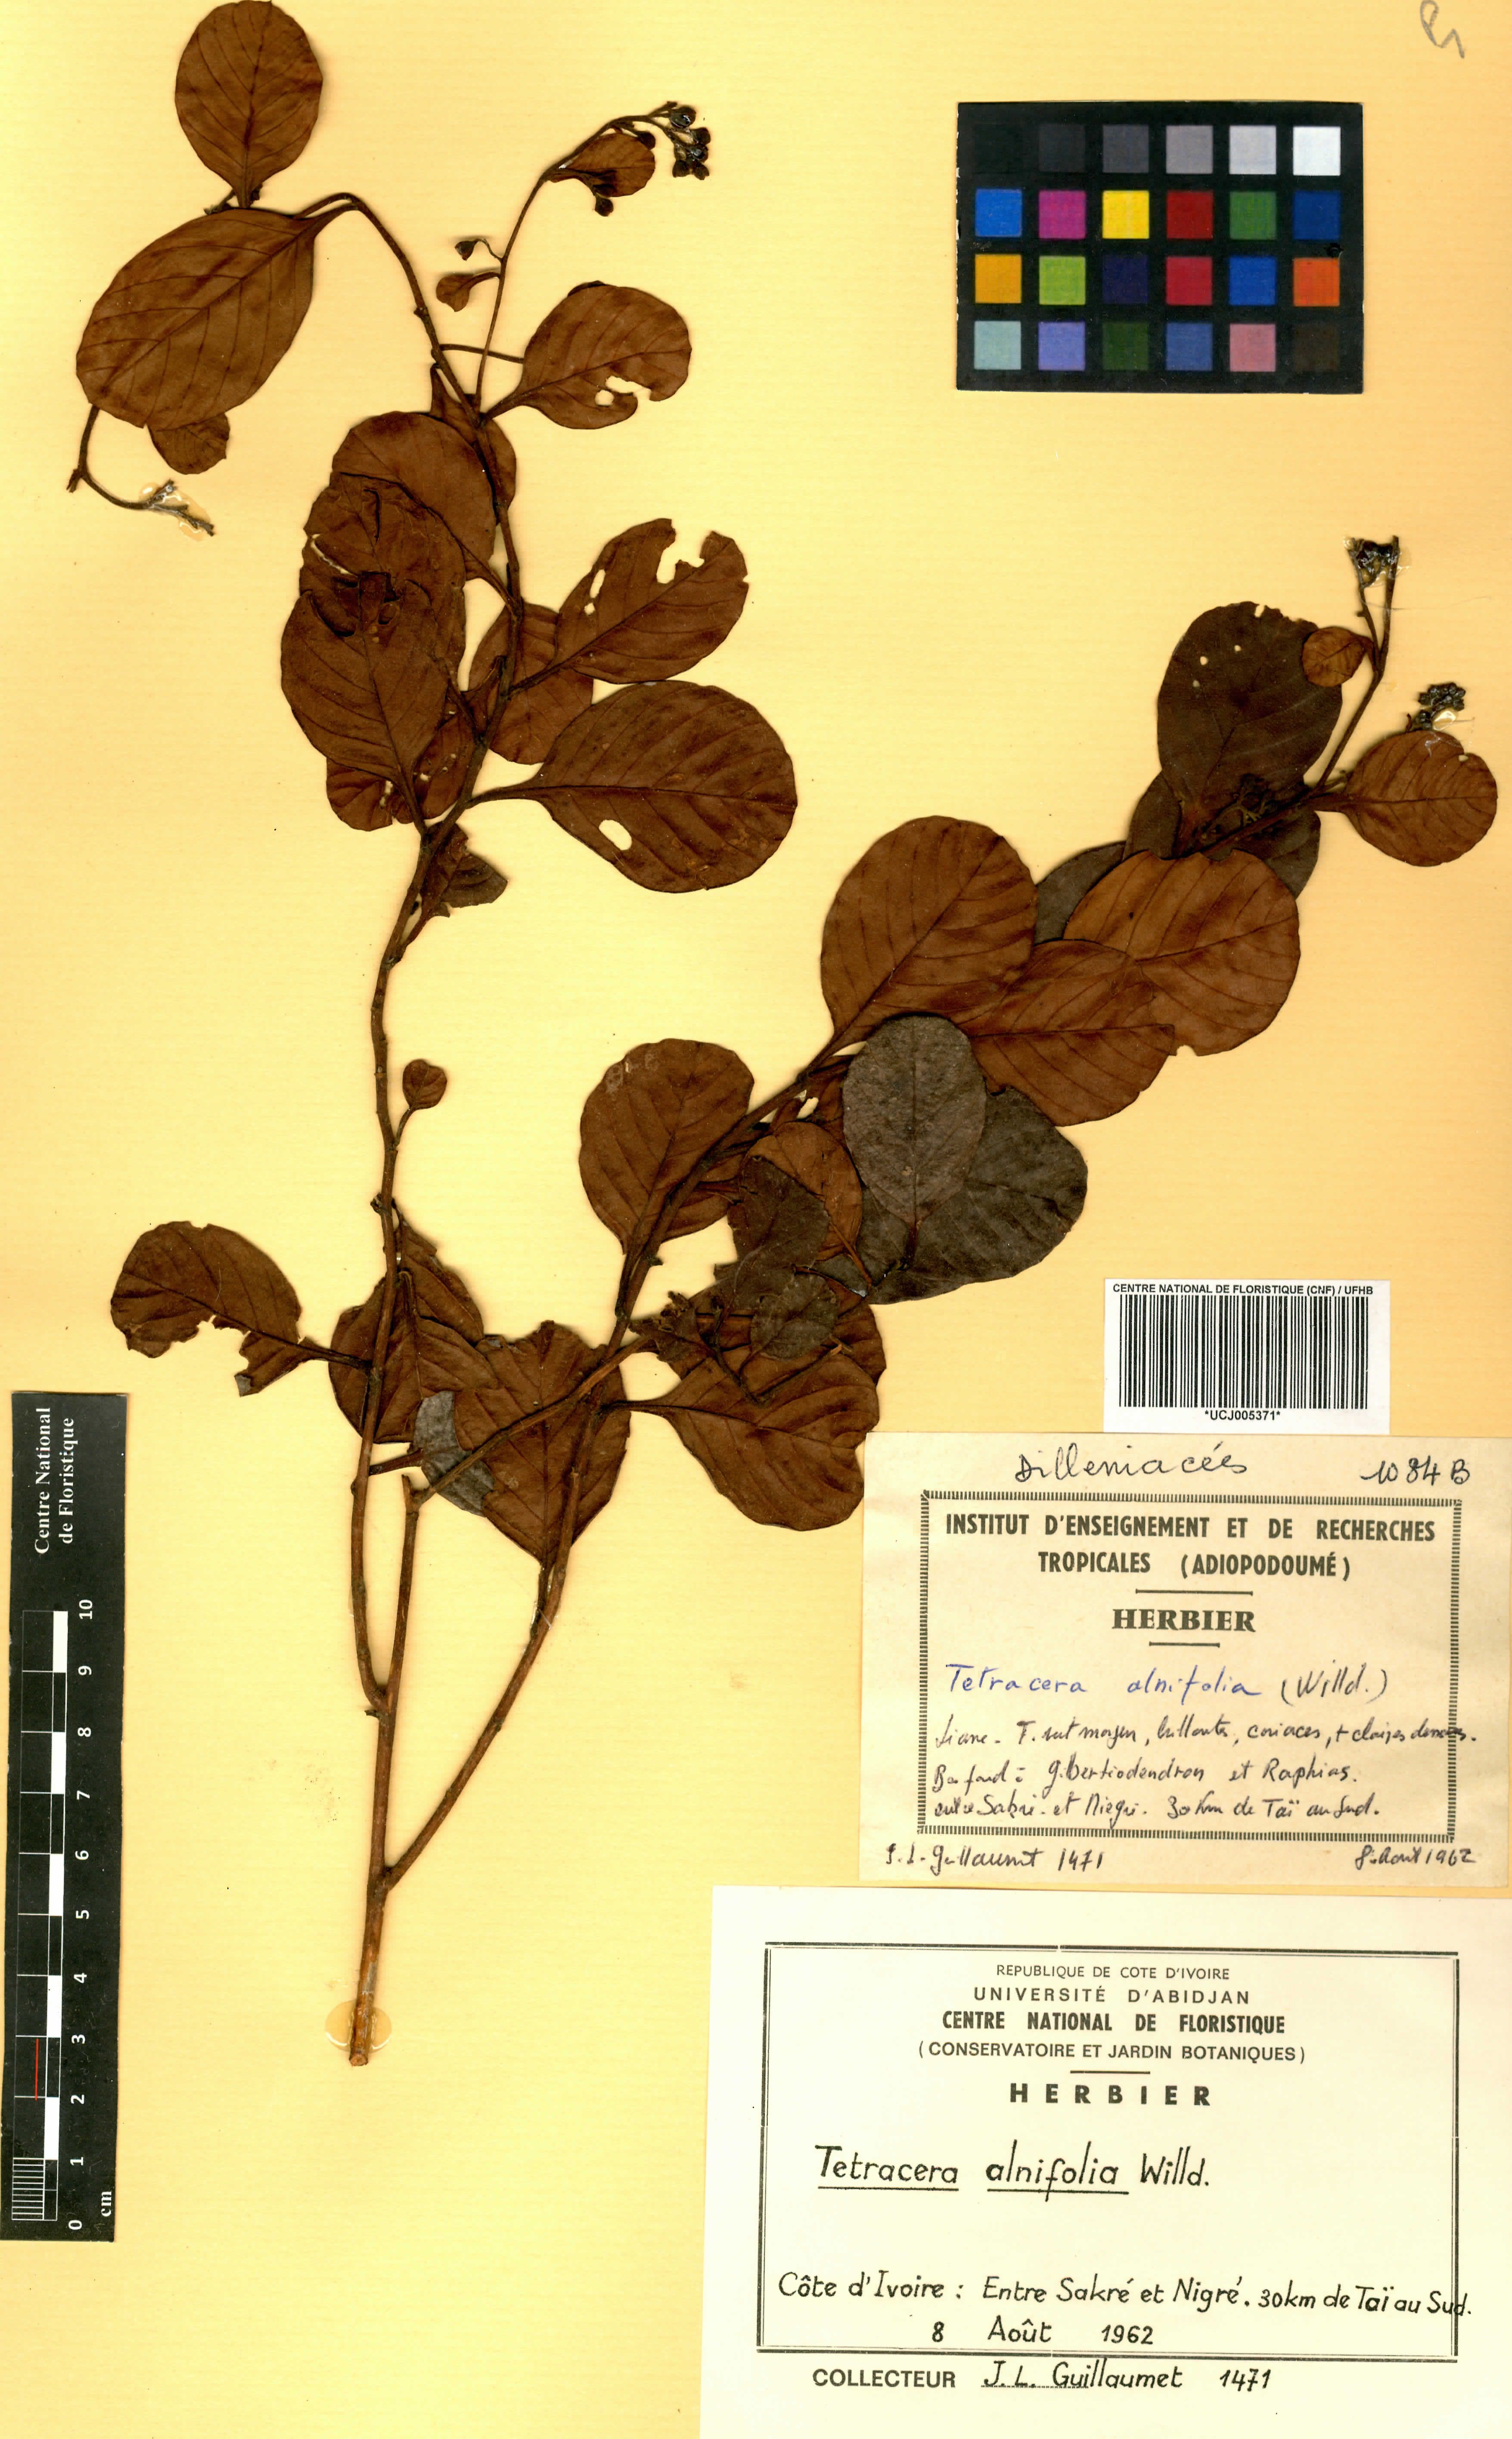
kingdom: Plantae
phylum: Tracheophyta
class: Magnoliopsida
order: Dilleniales
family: Dilleniaceae
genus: Tetracera
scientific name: Tetracera alnifolia
